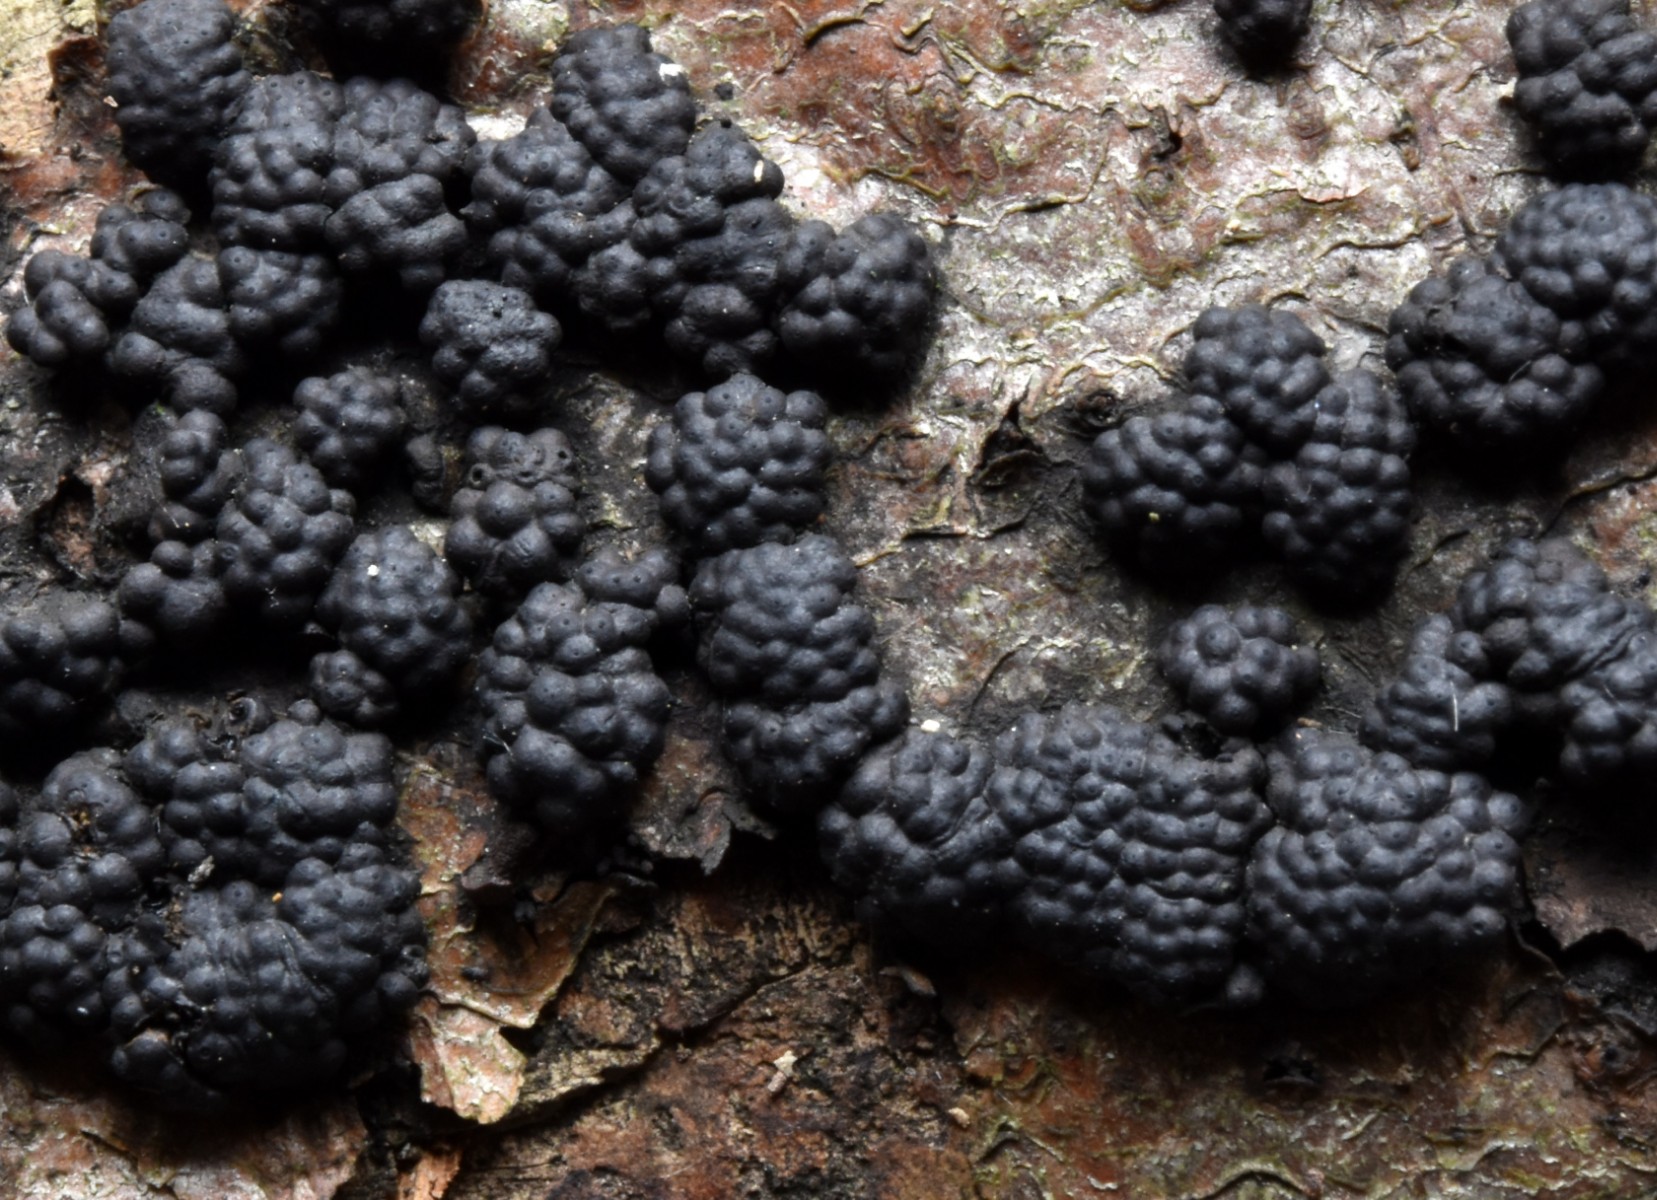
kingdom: Fungi
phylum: Ascomycota
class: Sordariomycetes
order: Xylariales
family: Hypoxylaceae
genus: Jackrogersella
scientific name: Jackrogersella cohaerens
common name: sammenflydende kulbær
